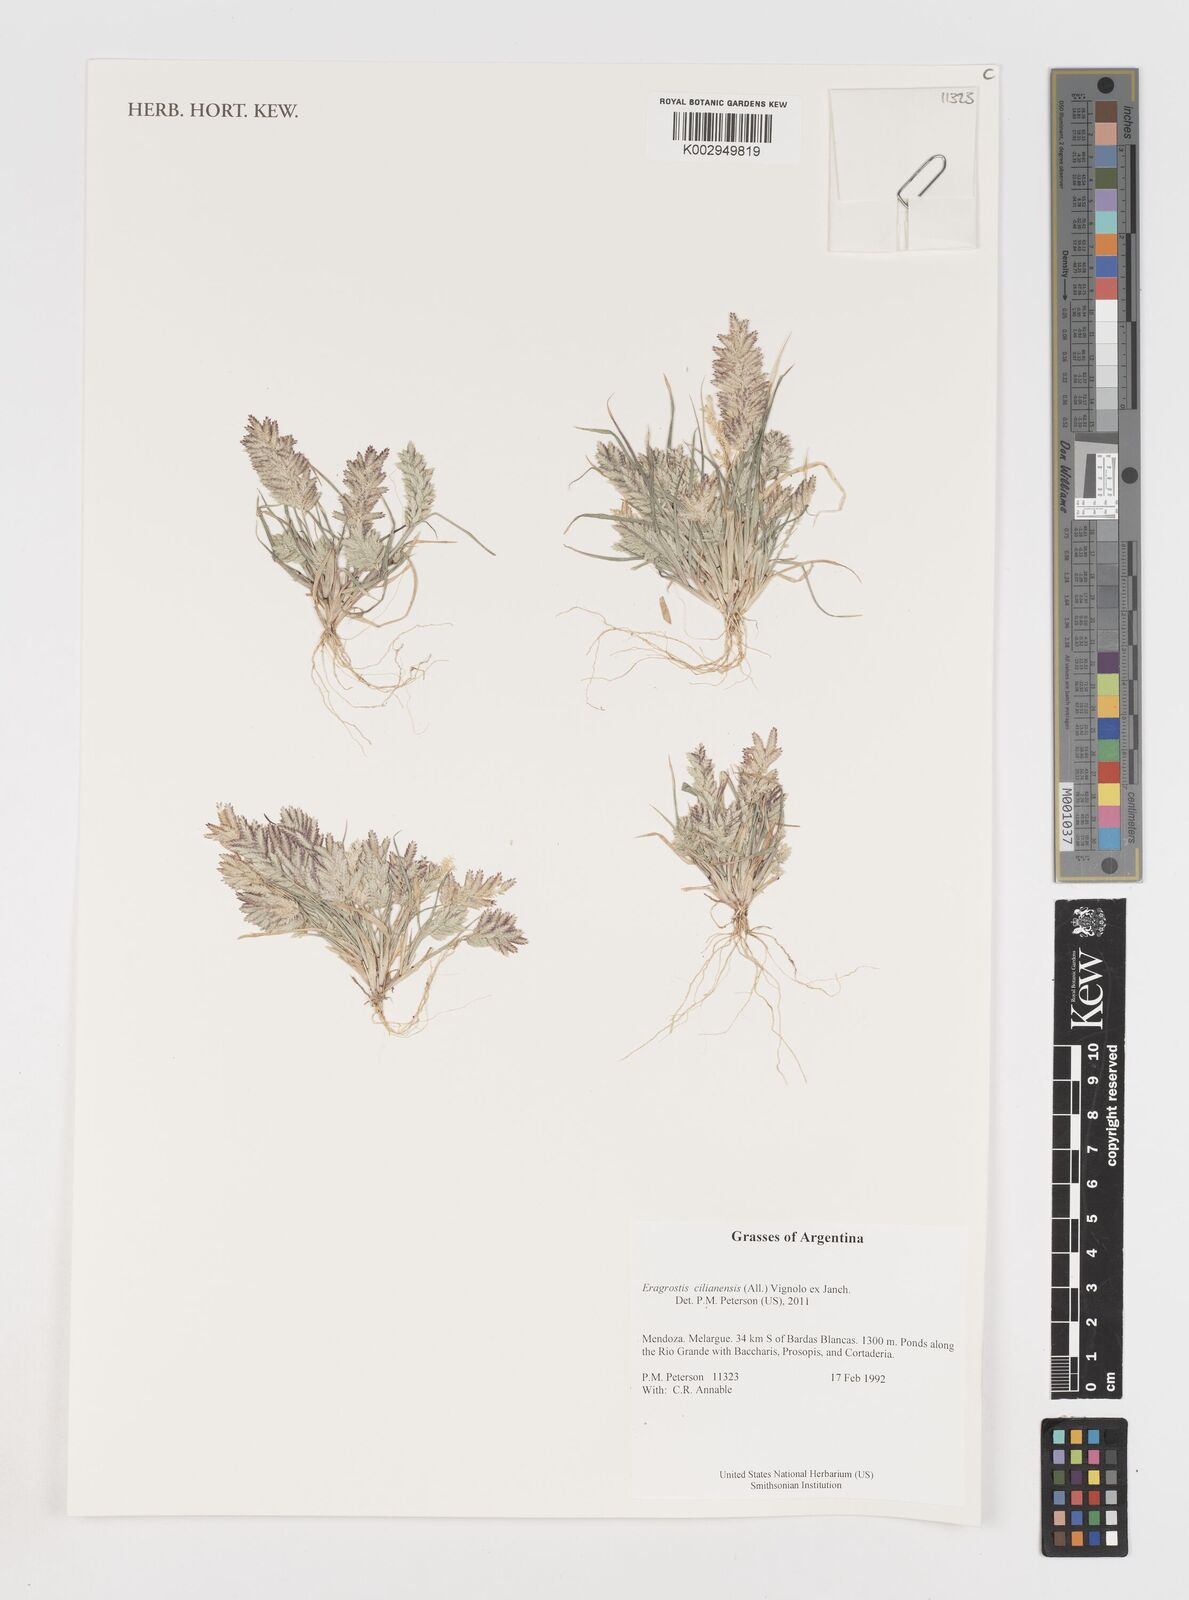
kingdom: Plantae
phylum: Tracheophyta
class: Liliopsida
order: Poales
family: Poaceae
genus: Eragrostis
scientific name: Eragrostis cilianensis
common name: Stinkgrass
